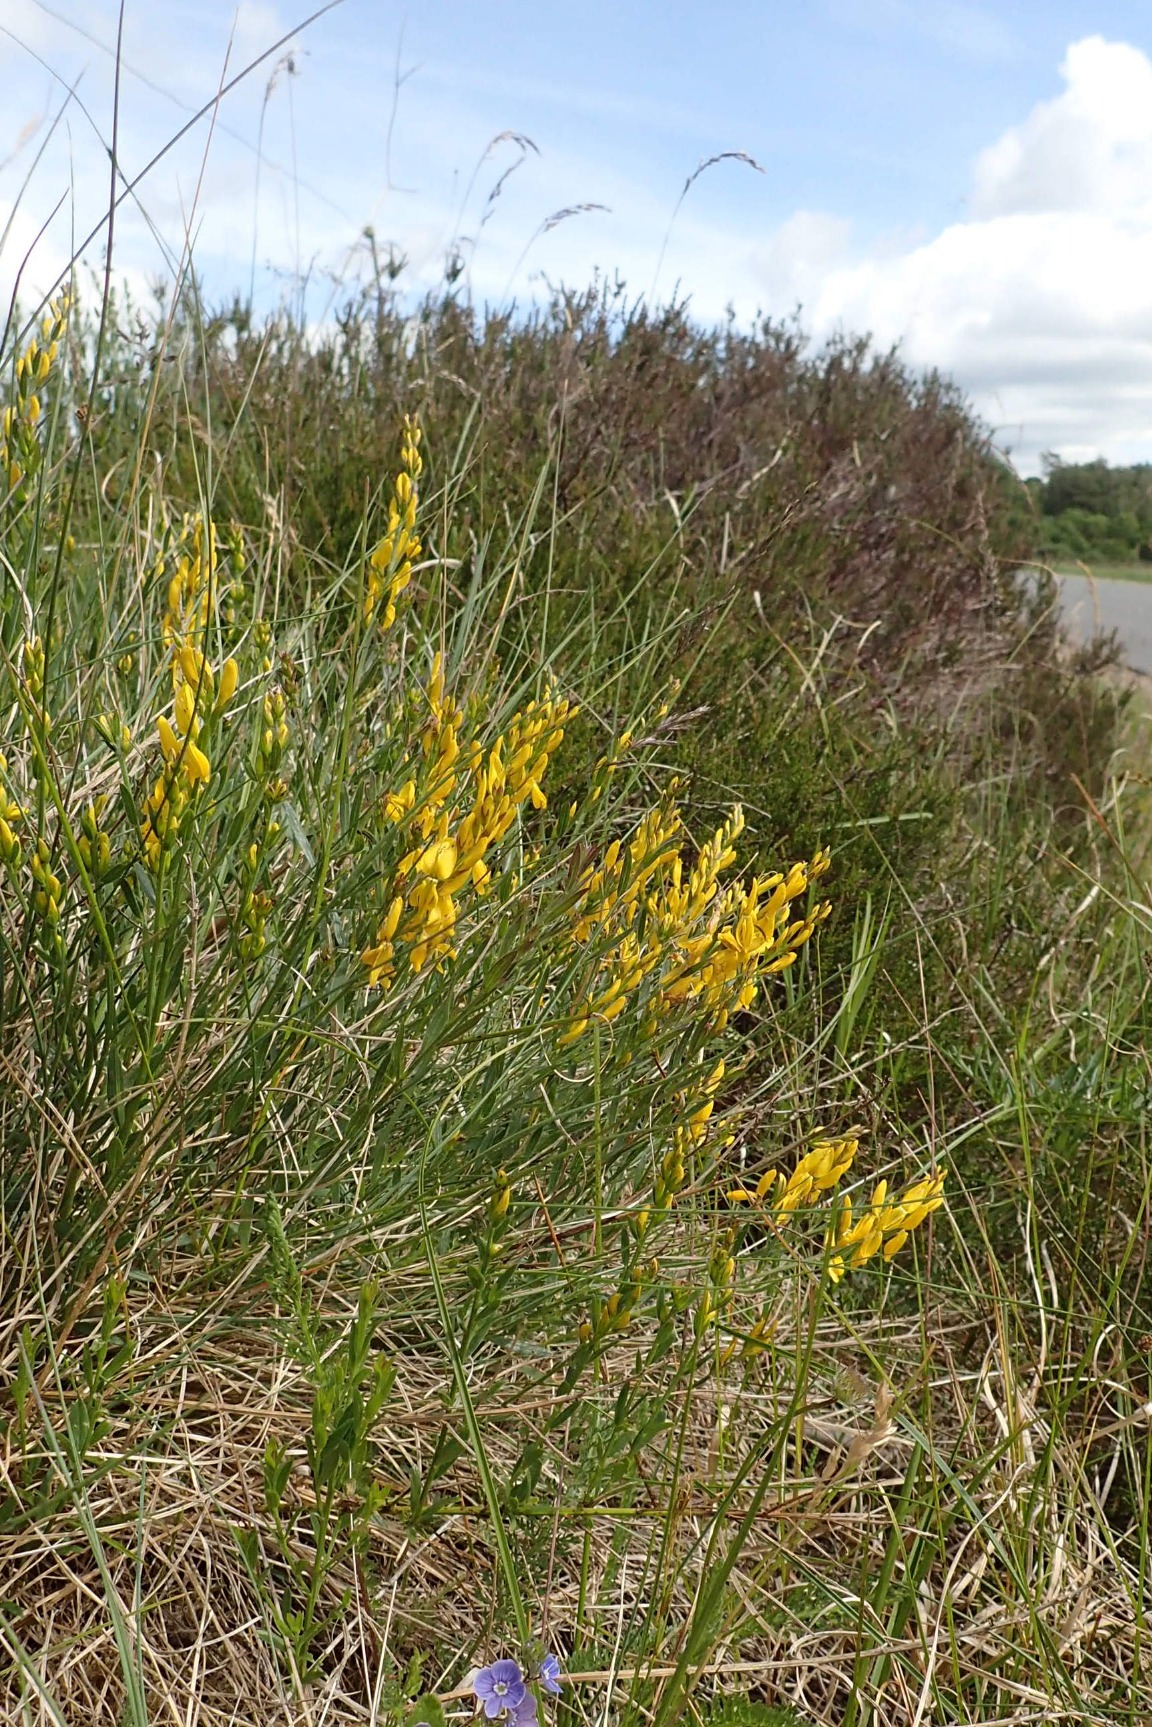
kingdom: Plantae
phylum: Tracheophyta
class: Magnoliopsida
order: Fabales
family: Fabaceae
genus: Genista
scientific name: Genista tinctoria
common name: Farve-visse
